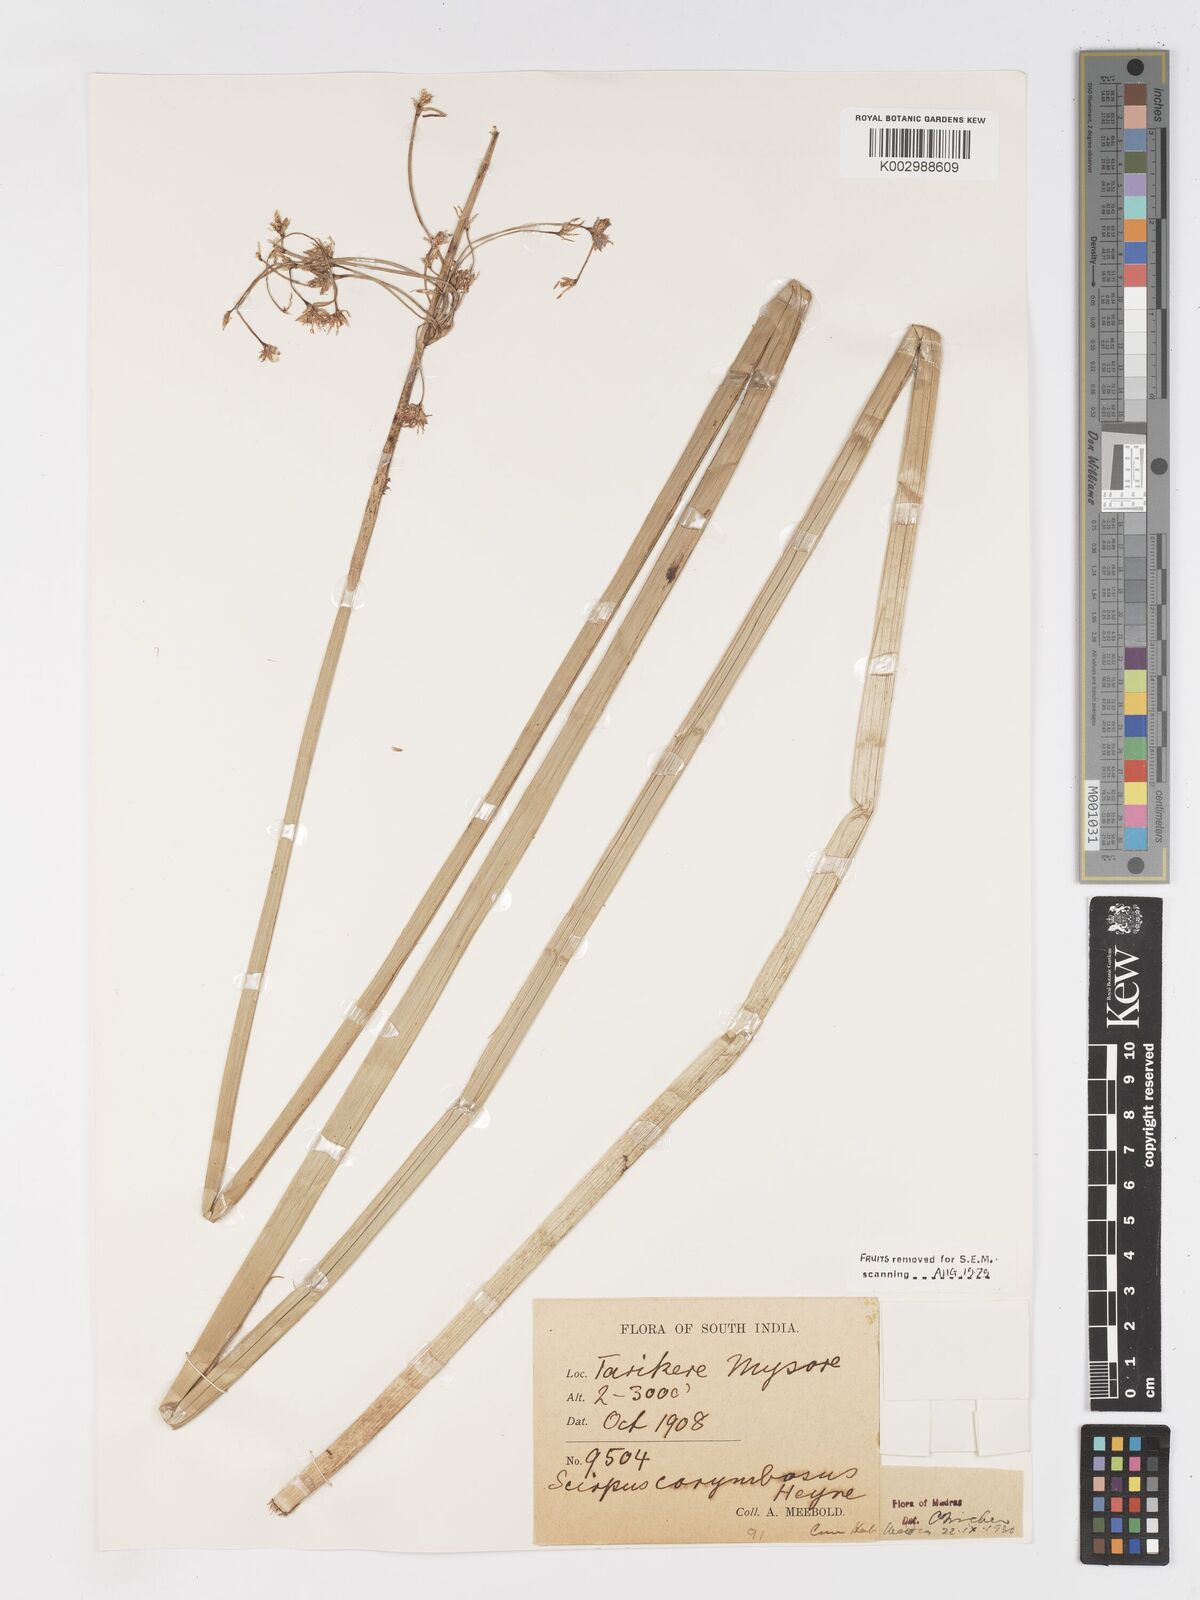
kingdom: Plantae
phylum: Tracheophyta
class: Liliopsida
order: Poales
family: Cyperaceae
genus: Schoenoplectiella
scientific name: Schoenoplectiella corymbosa
